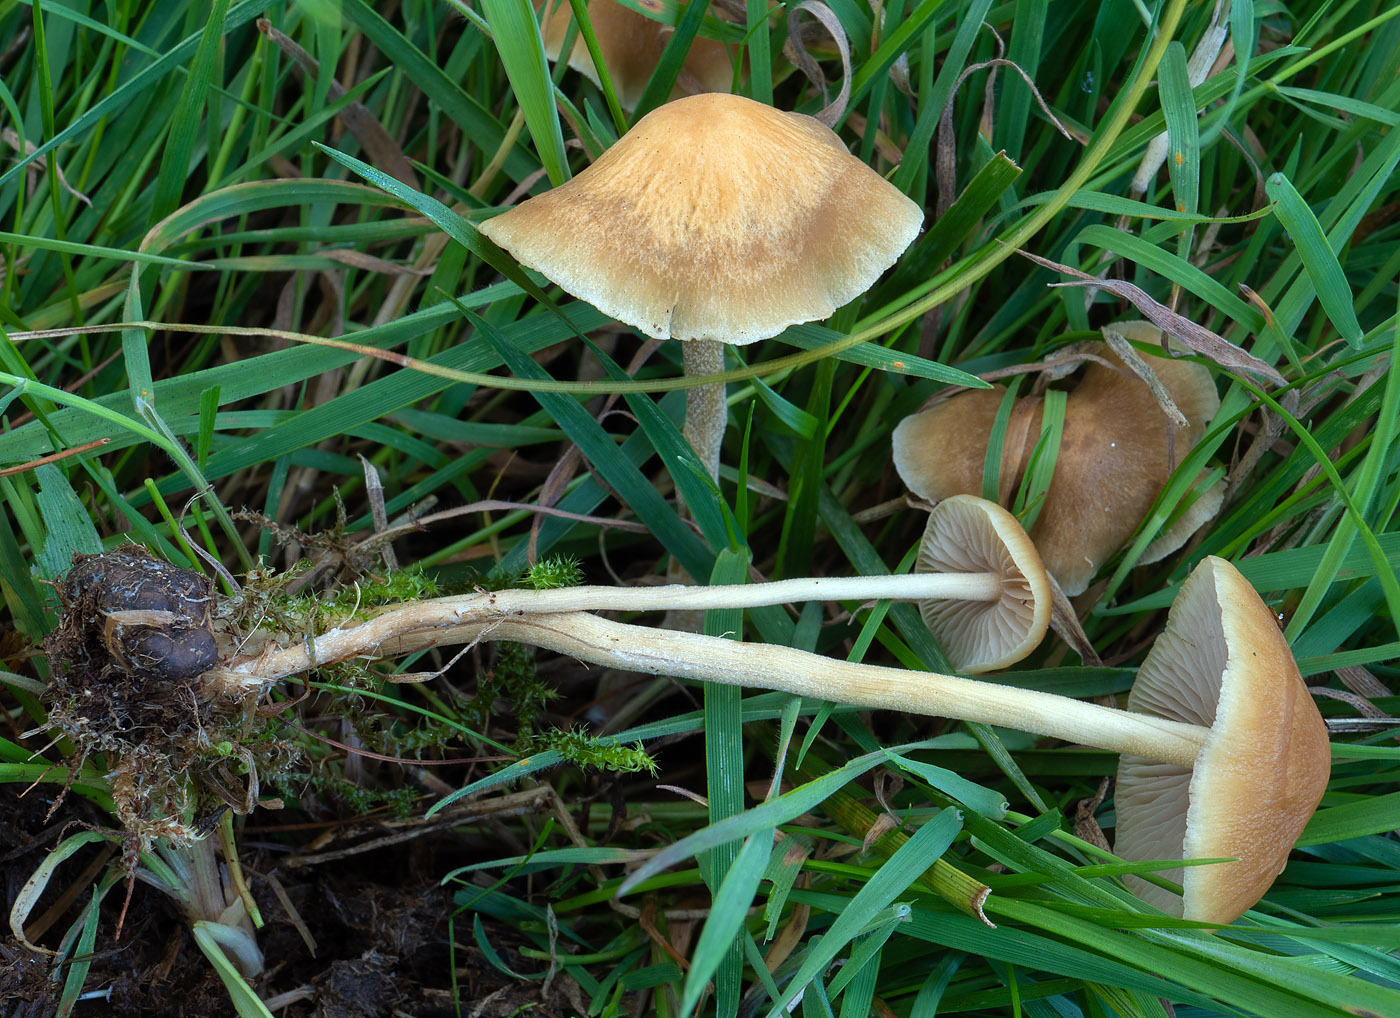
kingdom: Fungi
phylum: Basidiomycota
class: Agaricomycetes
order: Agaricales
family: Strophariaceae
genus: Agrocybe
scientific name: Agrocybe arvalis
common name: rodslående agerhat
